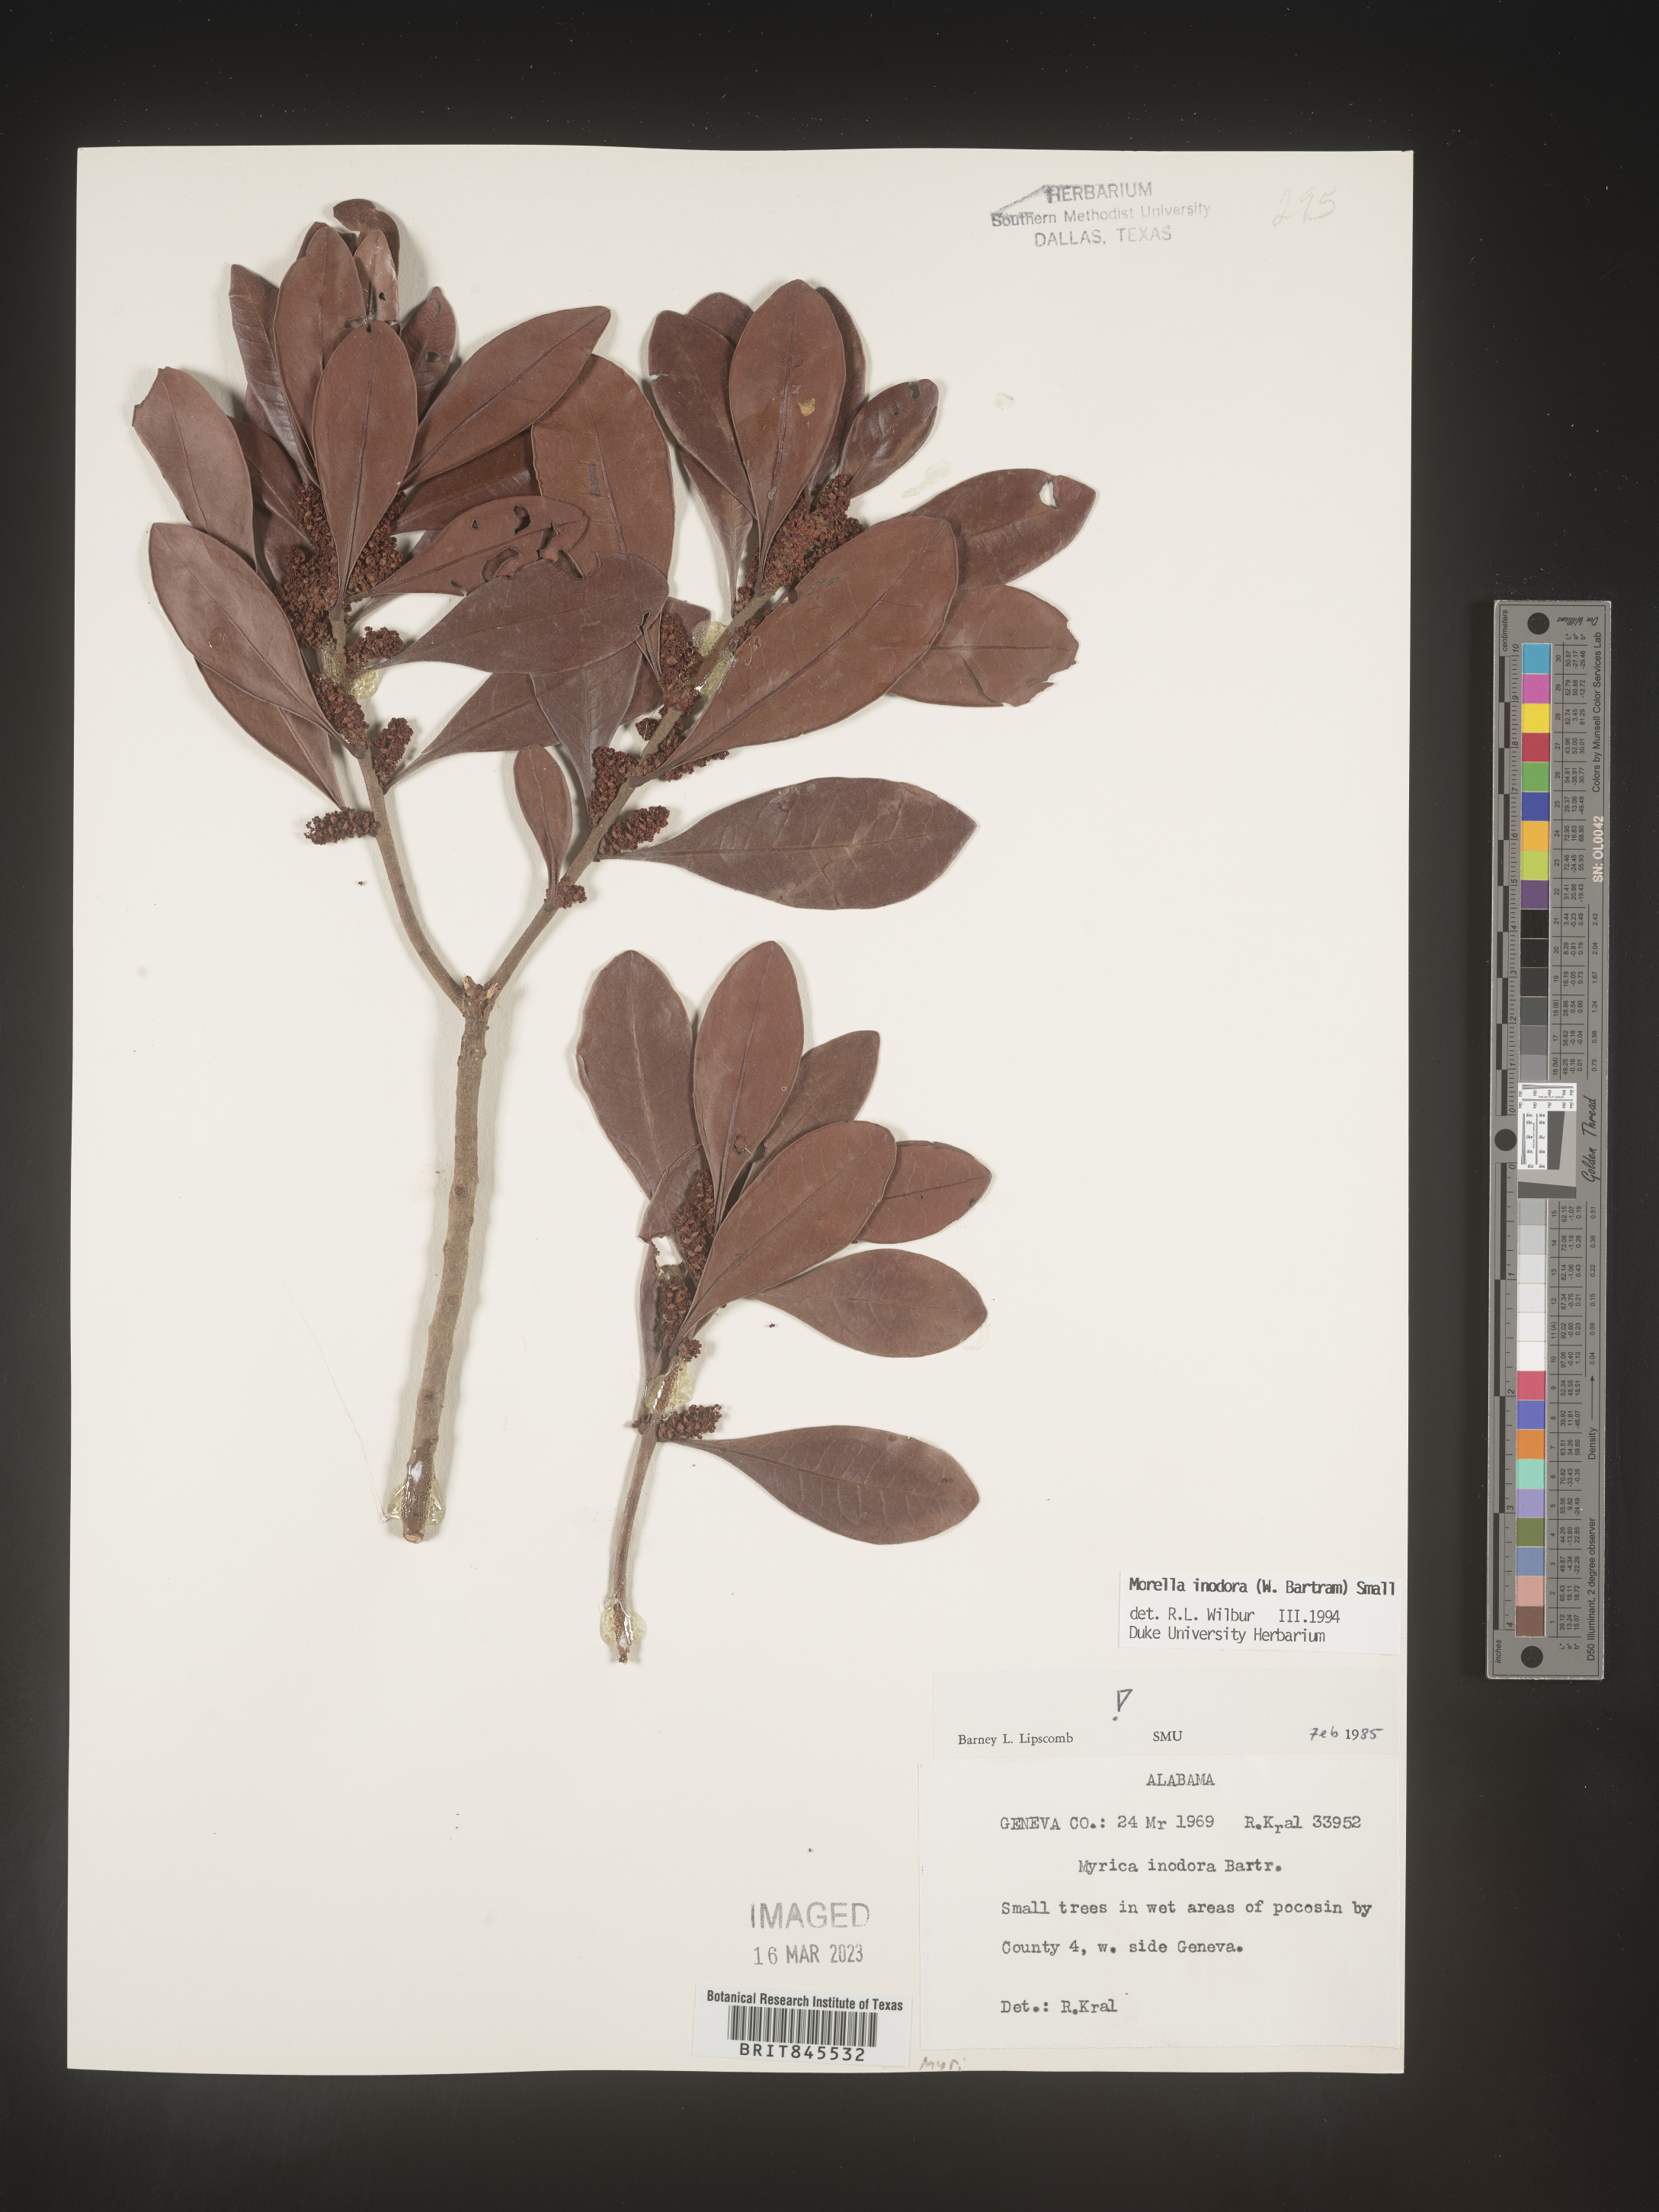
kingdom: Plantae
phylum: Tracheophyta
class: Magnoliopsida
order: Fagales
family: Myricaceae
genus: Myrica
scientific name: Myrica
